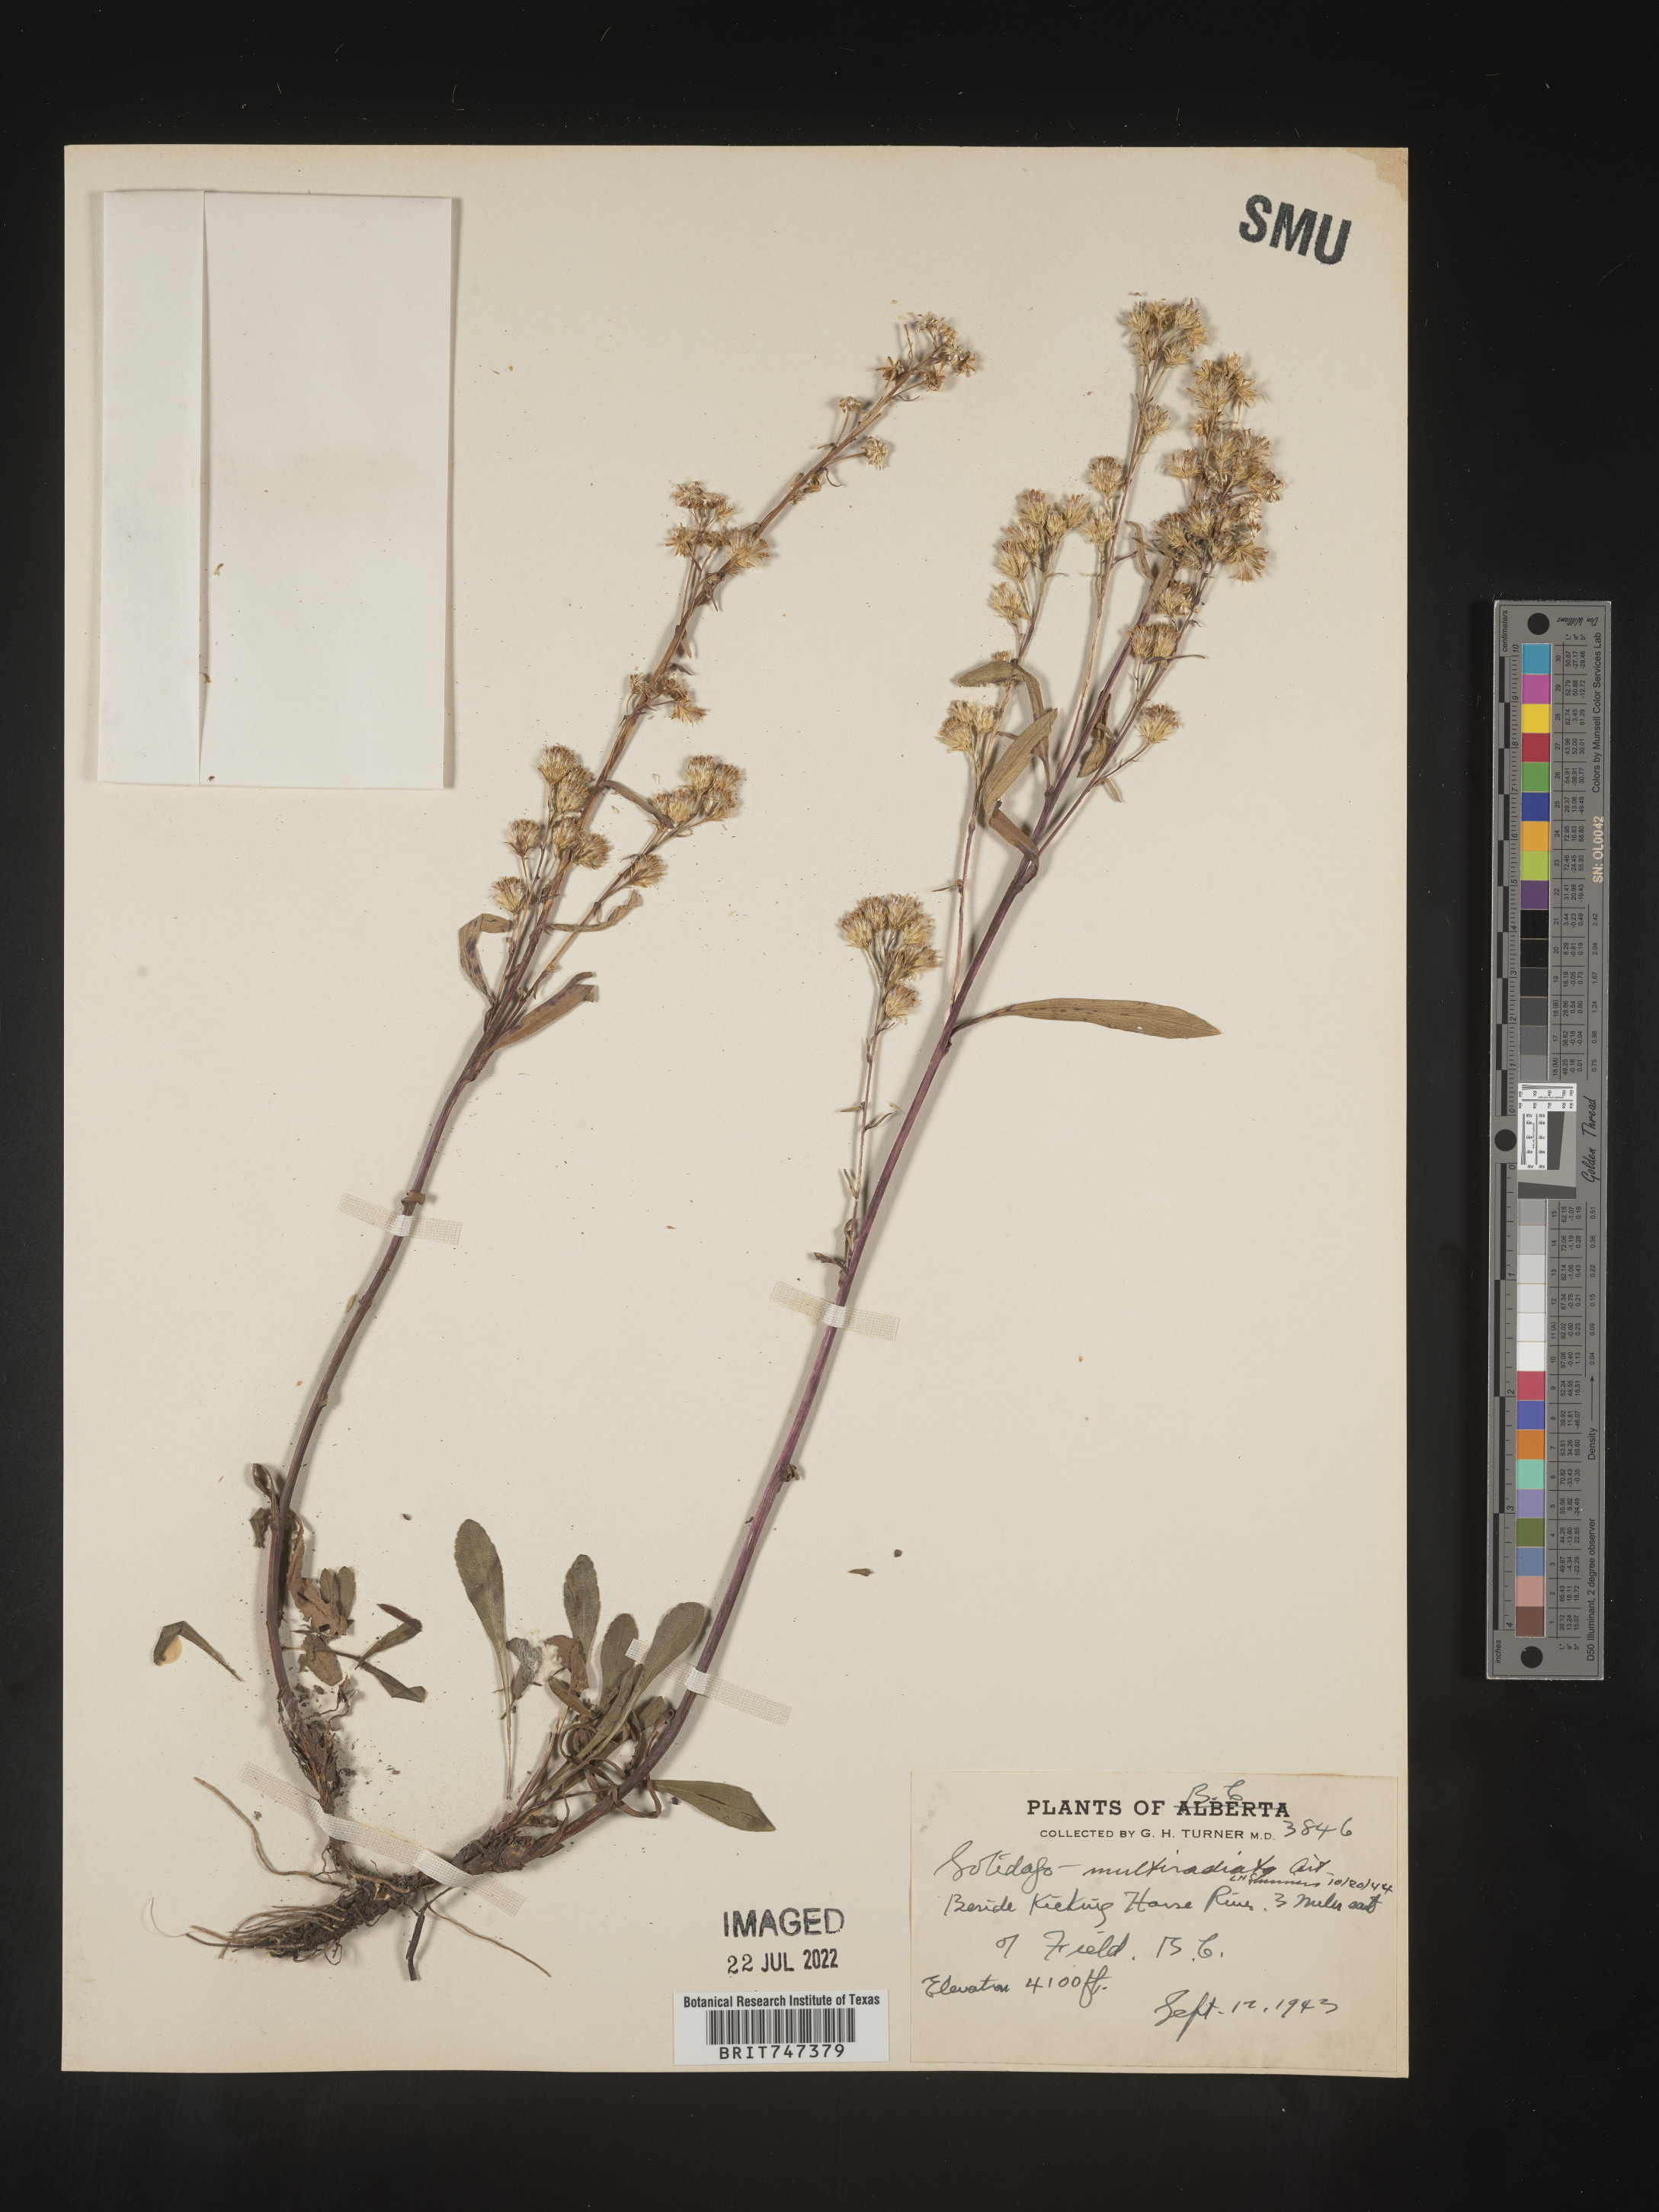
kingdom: Plantae
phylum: Tracheophyta
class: Magnoliopsida
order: Asterales
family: Asteraceae
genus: Solidago
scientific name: Solidago multiradiata
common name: Northern goldenrod
